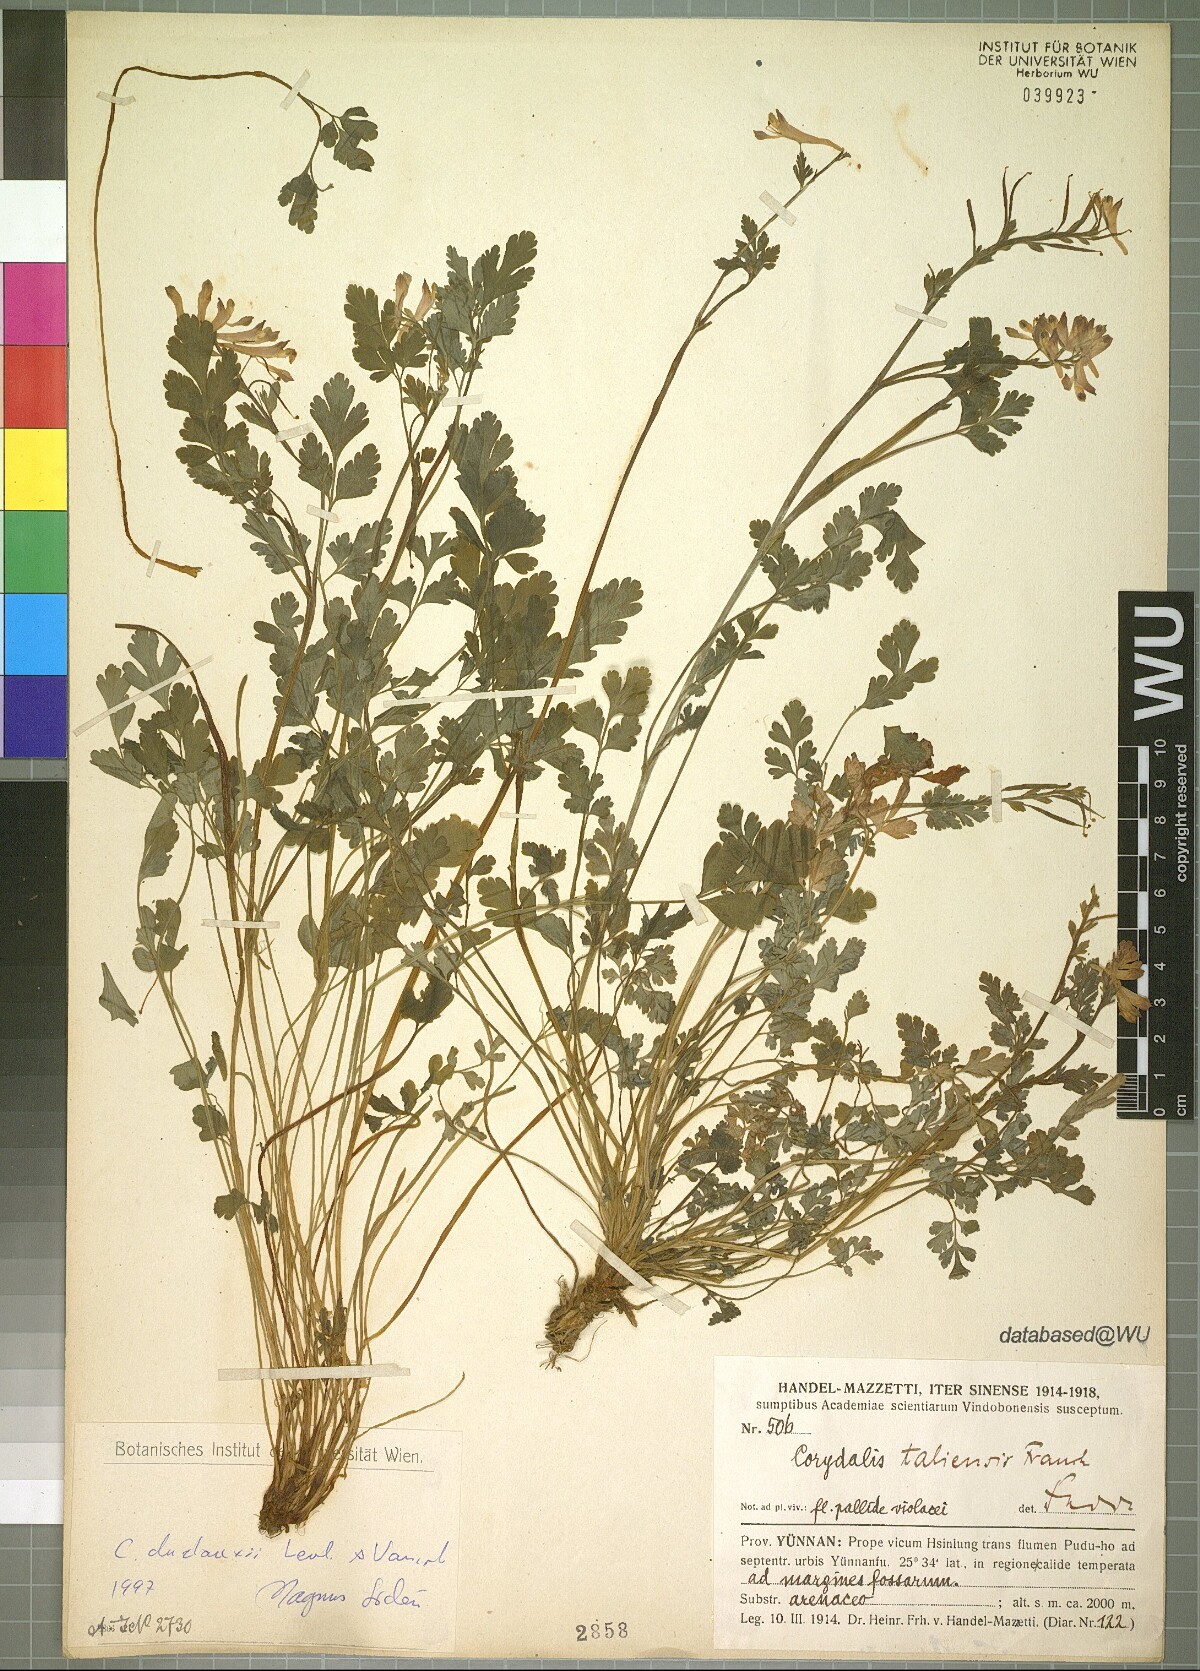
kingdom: Plantae
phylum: Tracheophyta
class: Magnoliopsida
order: Ranunculales
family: Papaveraceae
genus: Corydalis
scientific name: Corydalis duclouxii
